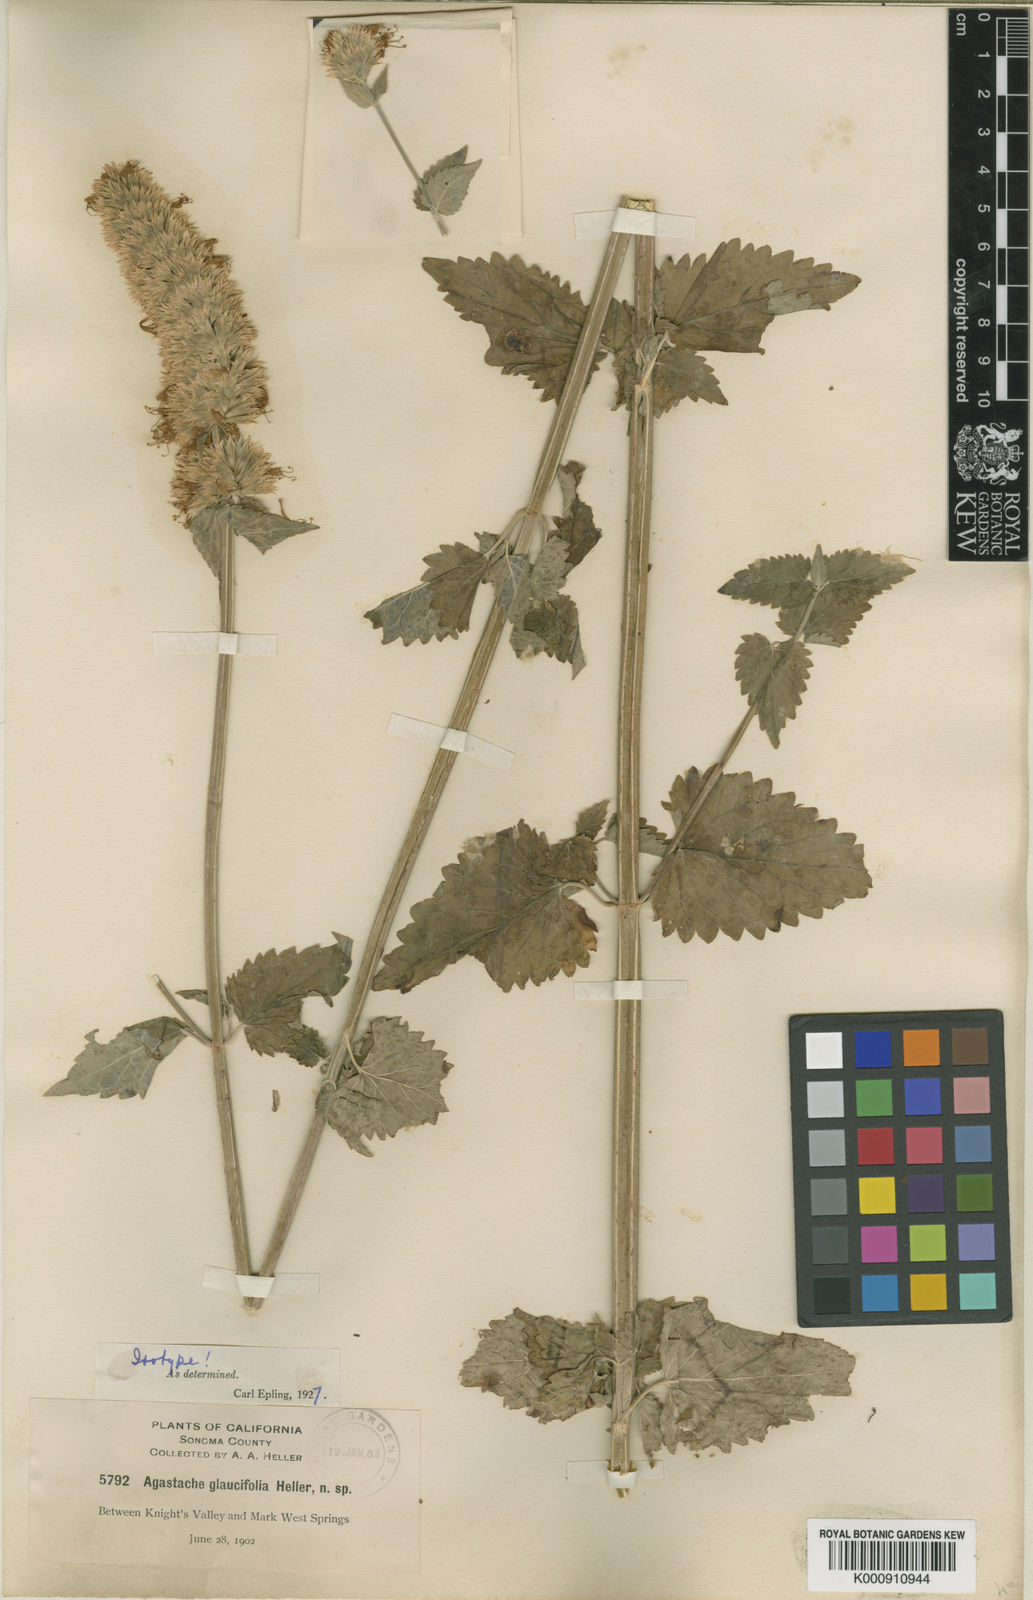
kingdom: Plantae
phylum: Tracheophyta
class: Magnoliopsida
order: Lamiales
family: Lamiaceae
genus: Agastache
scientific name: Agastache urticifolia
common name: Horsemint giant hyssop
